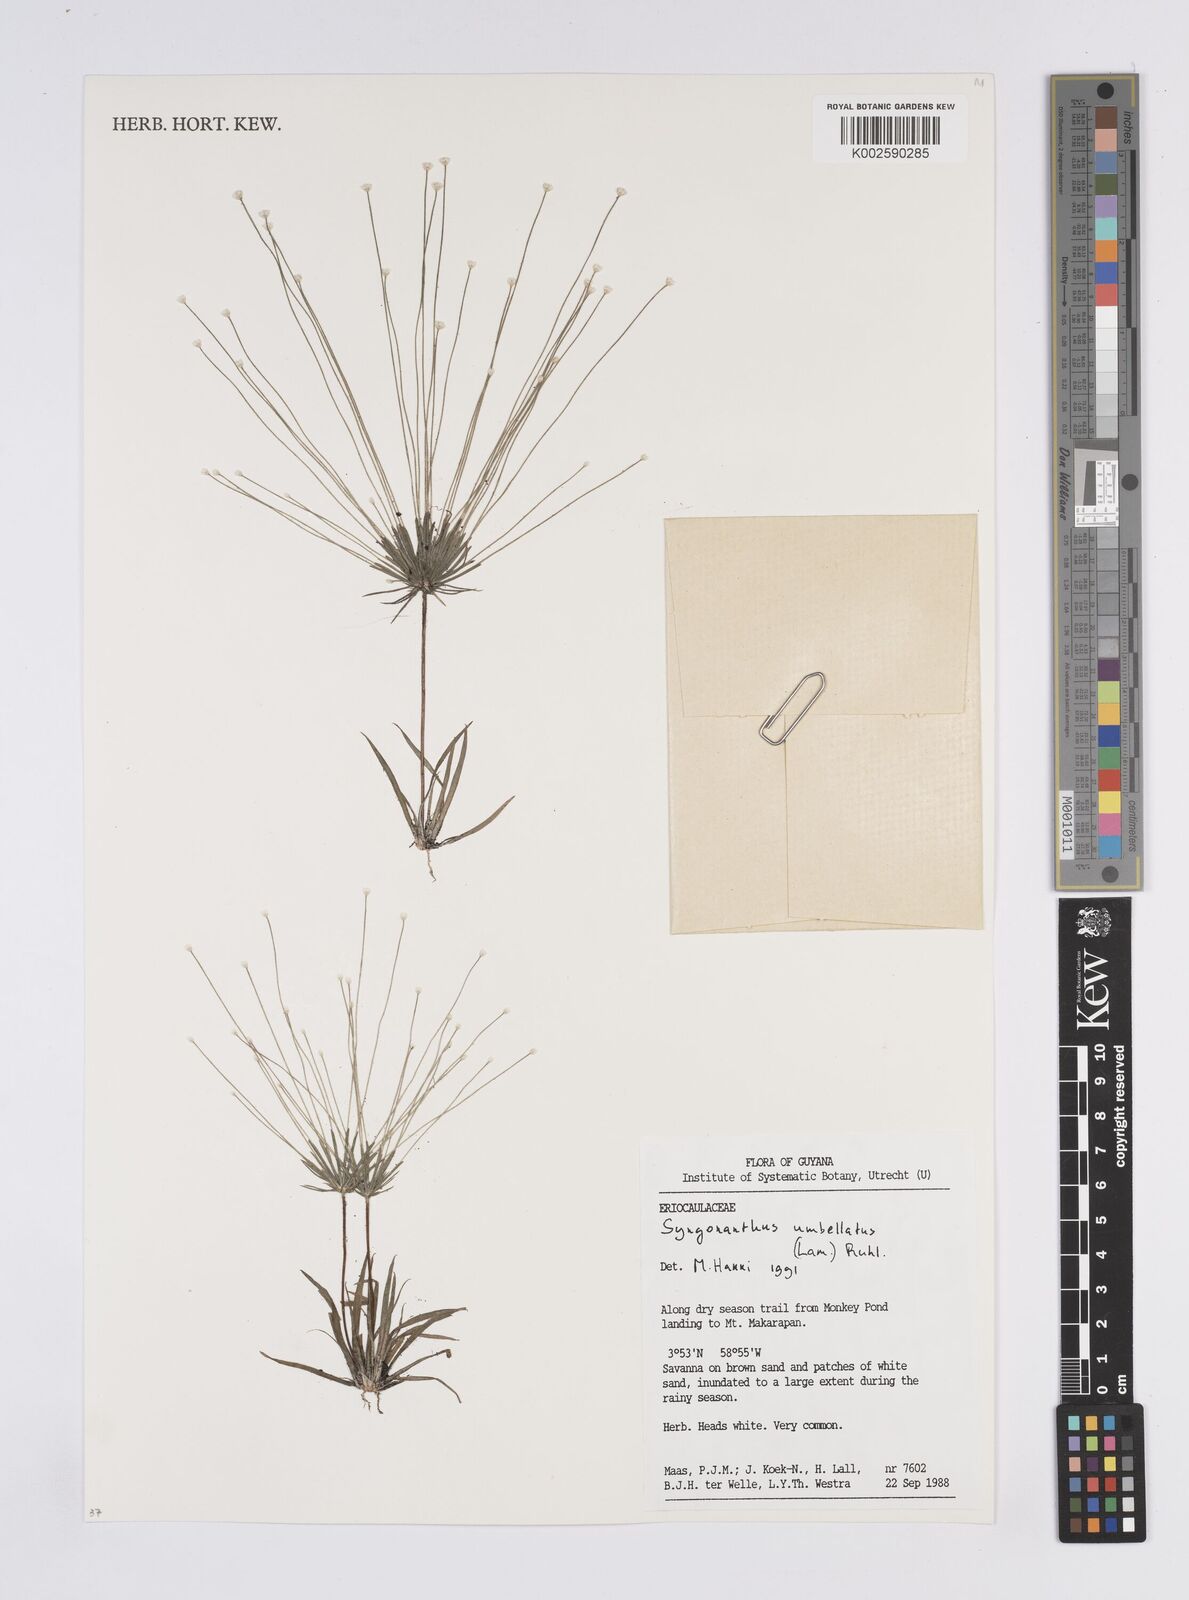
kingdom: Plantae
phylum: Tracheophyta
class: Liliopsida
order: Poales
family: Eriocaulaceae
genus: Syngonanthus
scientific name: Syngonanthus umbellatus
